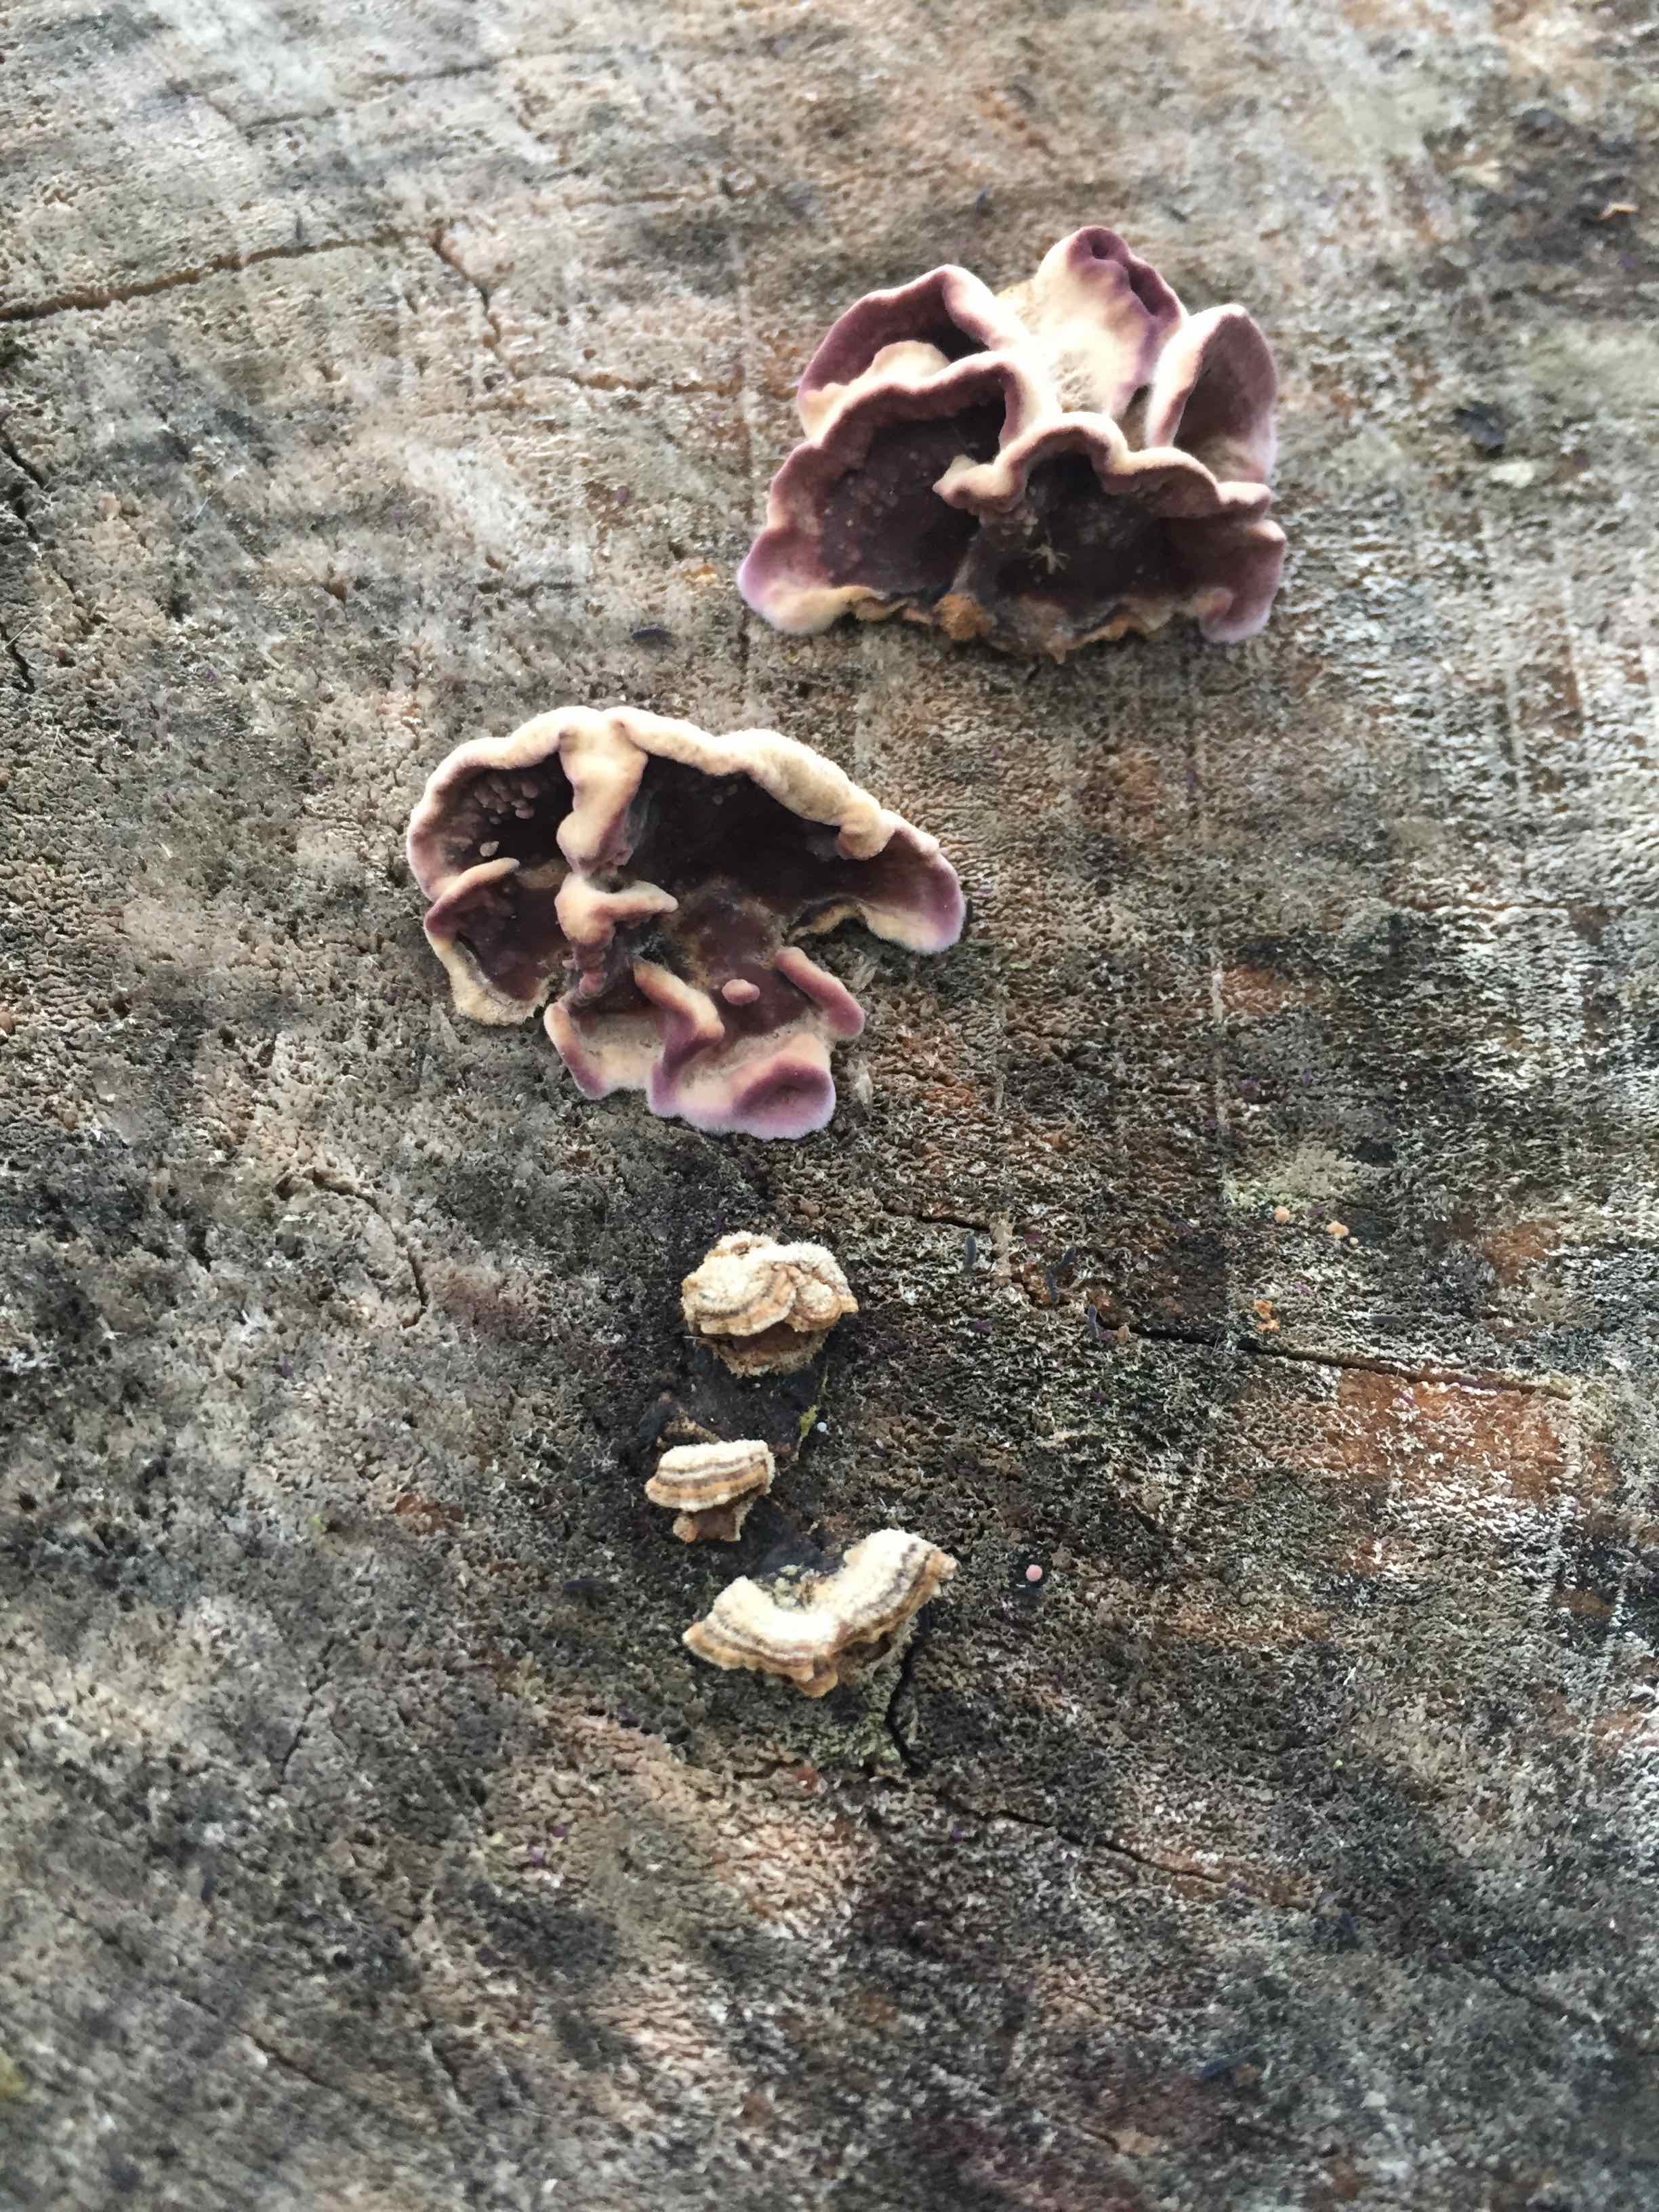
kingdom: Fungi
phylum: Basidiomycota
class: Agaricomycetes
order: Agaricales
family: Cyphellaceae
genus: Chondrostereum
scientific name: Chondrostereum purpureum
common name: purpurlædersvamp
